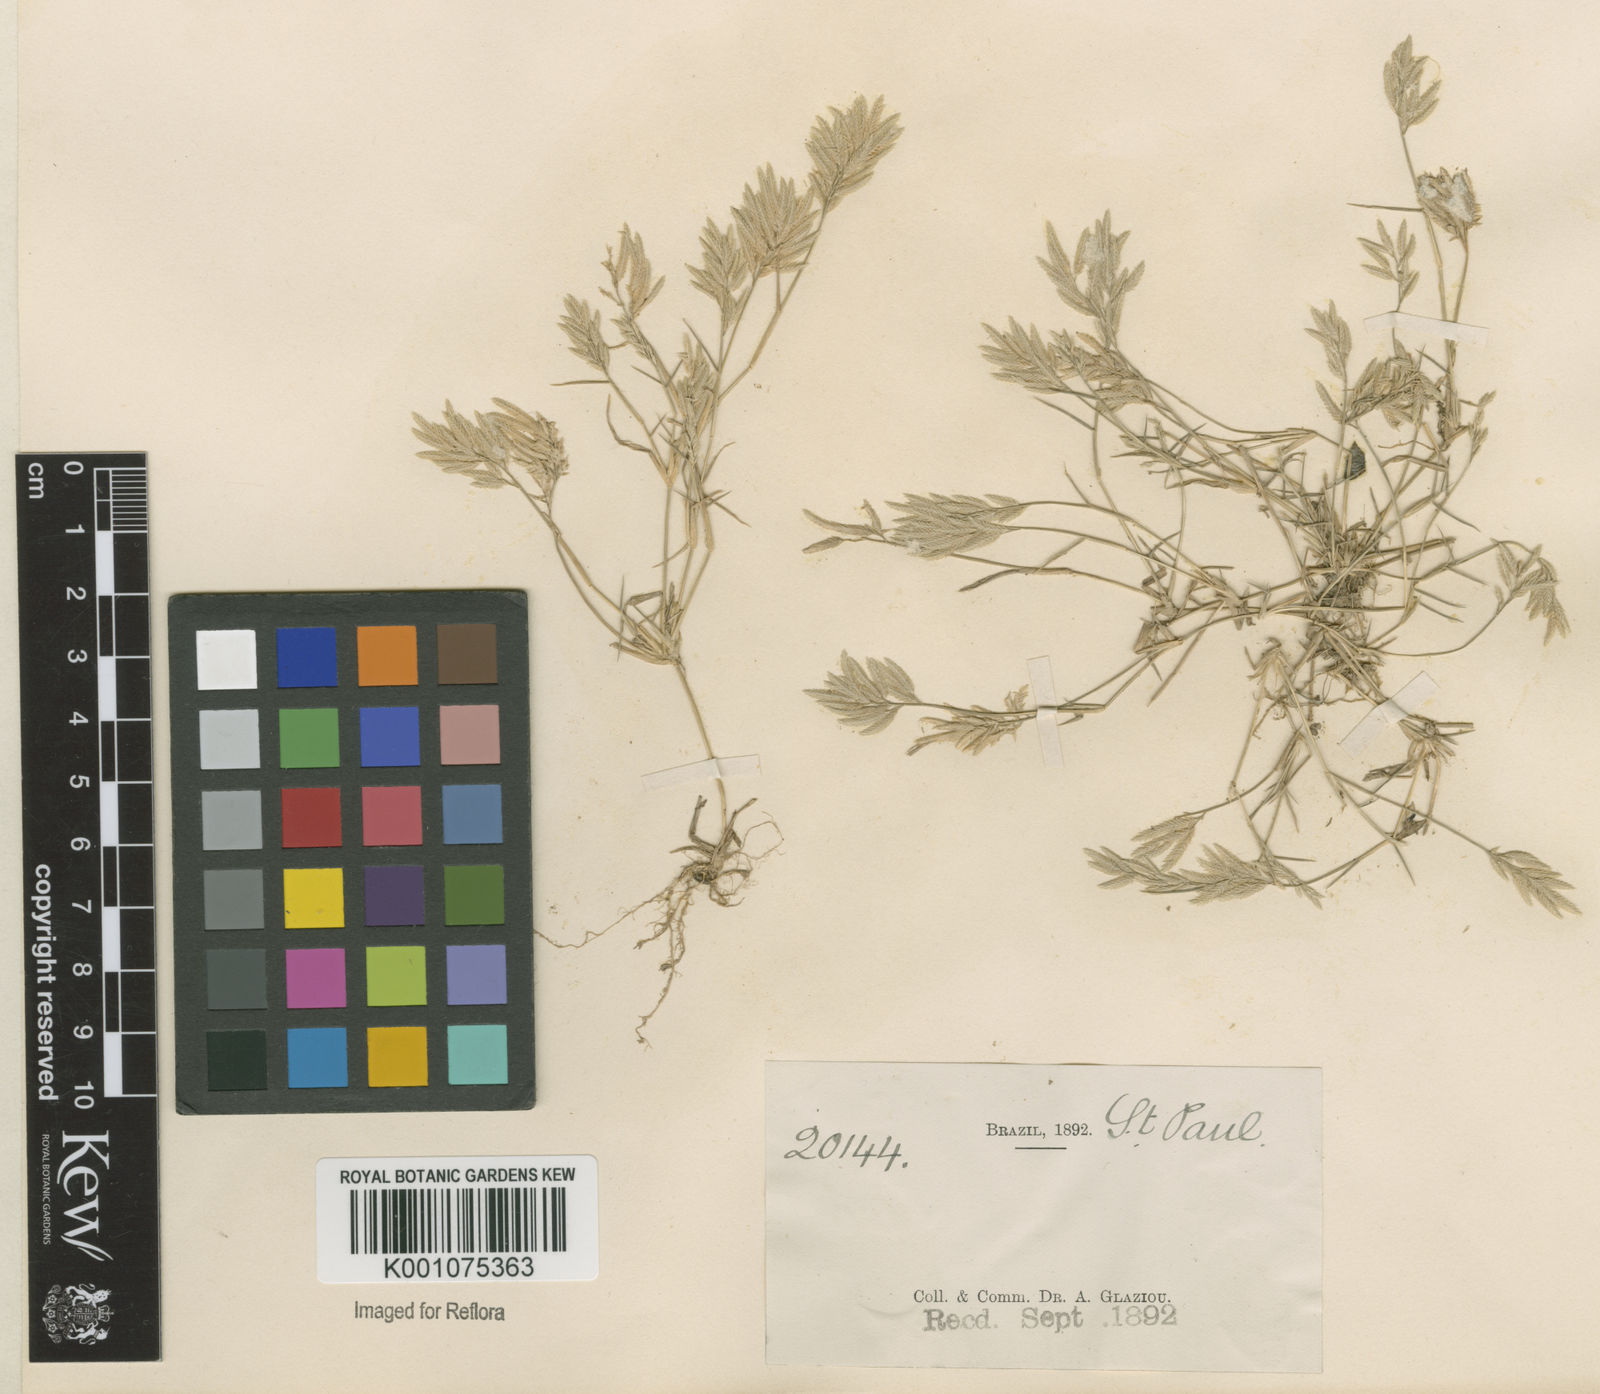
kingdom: Plantae
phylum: Tracheophyta
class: Liliopsida
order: Poales
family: Poaceae
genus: Eragrostis
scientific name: Eragrostis
